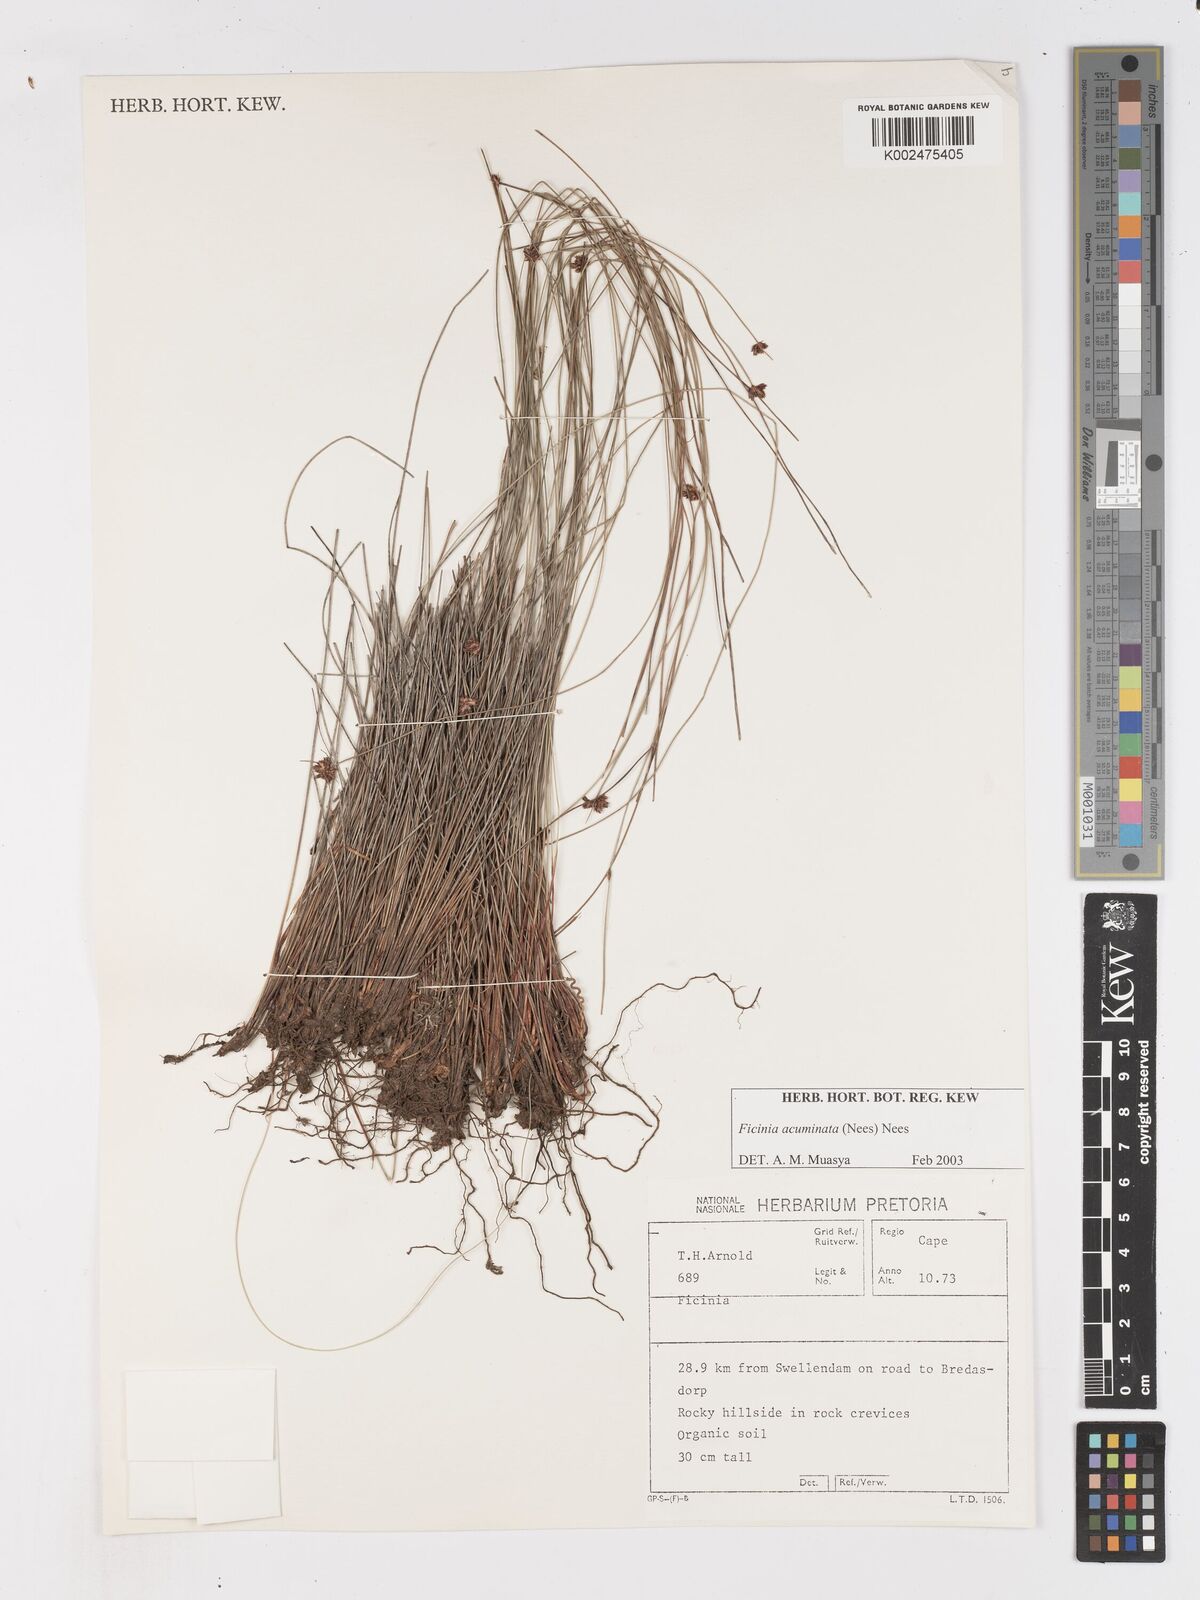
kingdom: Plantae
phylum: Tracheophyta
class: Liliopsida
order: Poales
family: Cyperaceae
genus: Ficinia
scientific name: Ficinia acuminata
